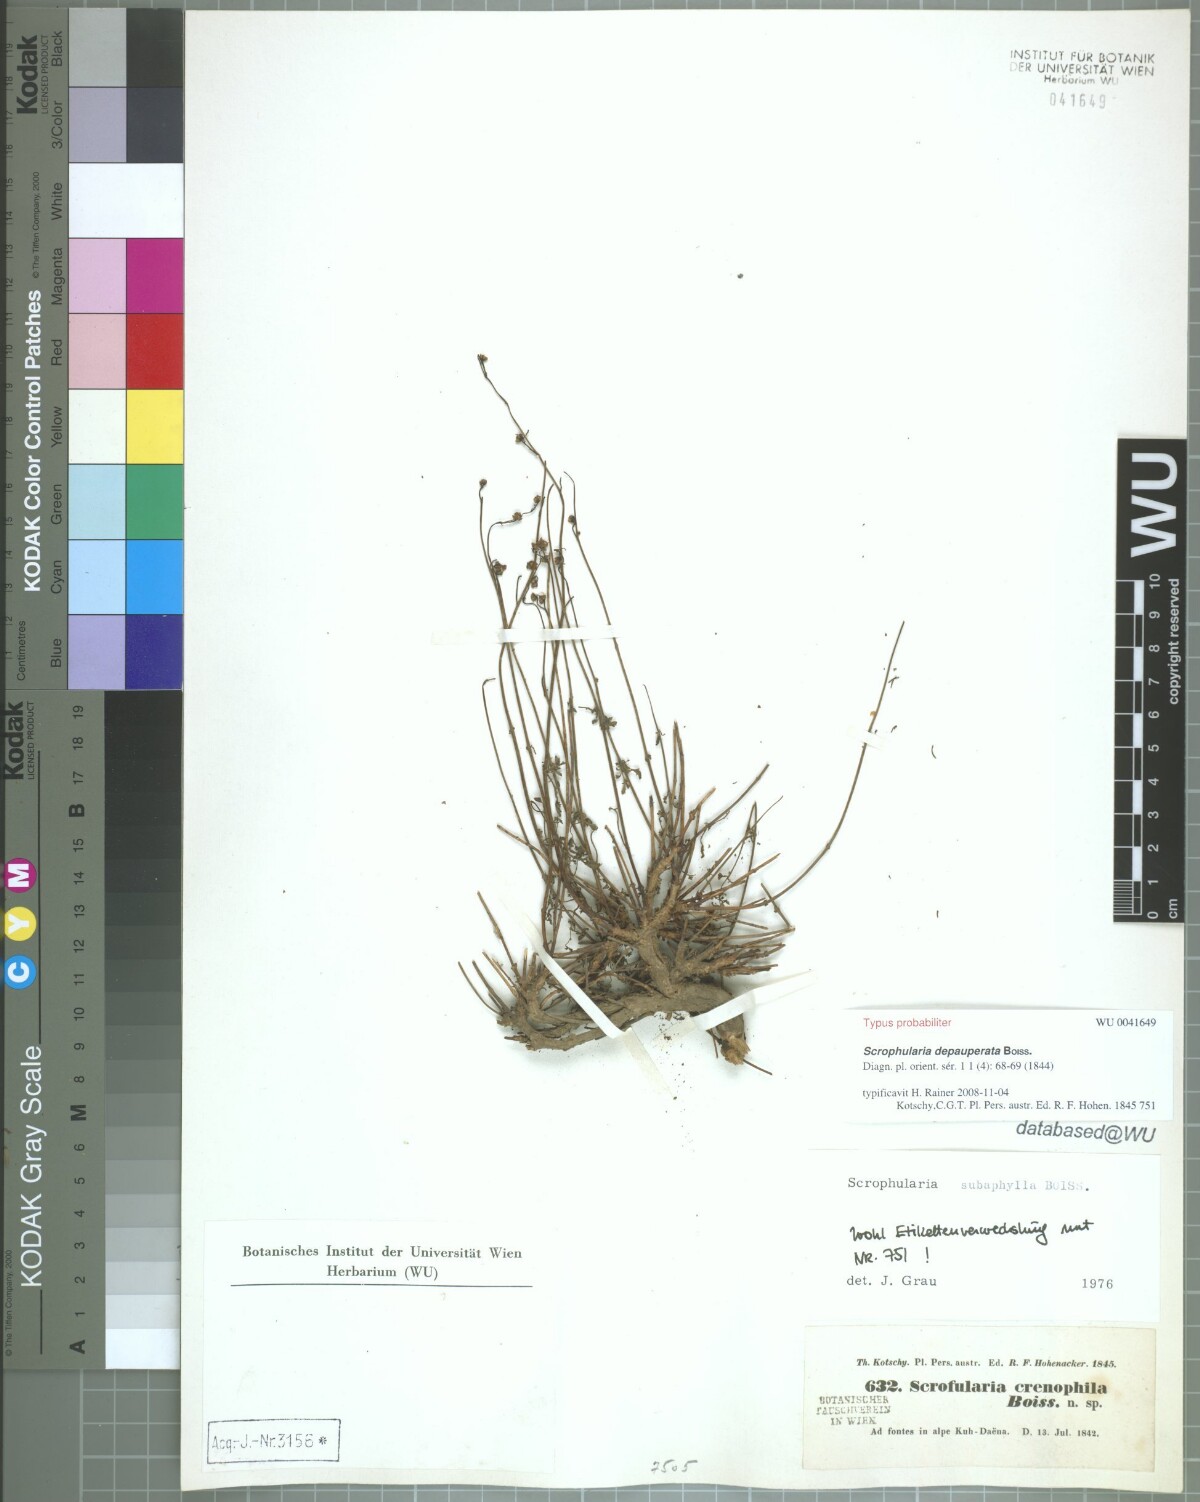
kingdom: Plantae
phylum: Tracheophyta
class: Magnoliopsida
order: Lamiales
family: Scrophulariaceae
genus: Scrophularia
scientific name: Scrophularia depauperata
